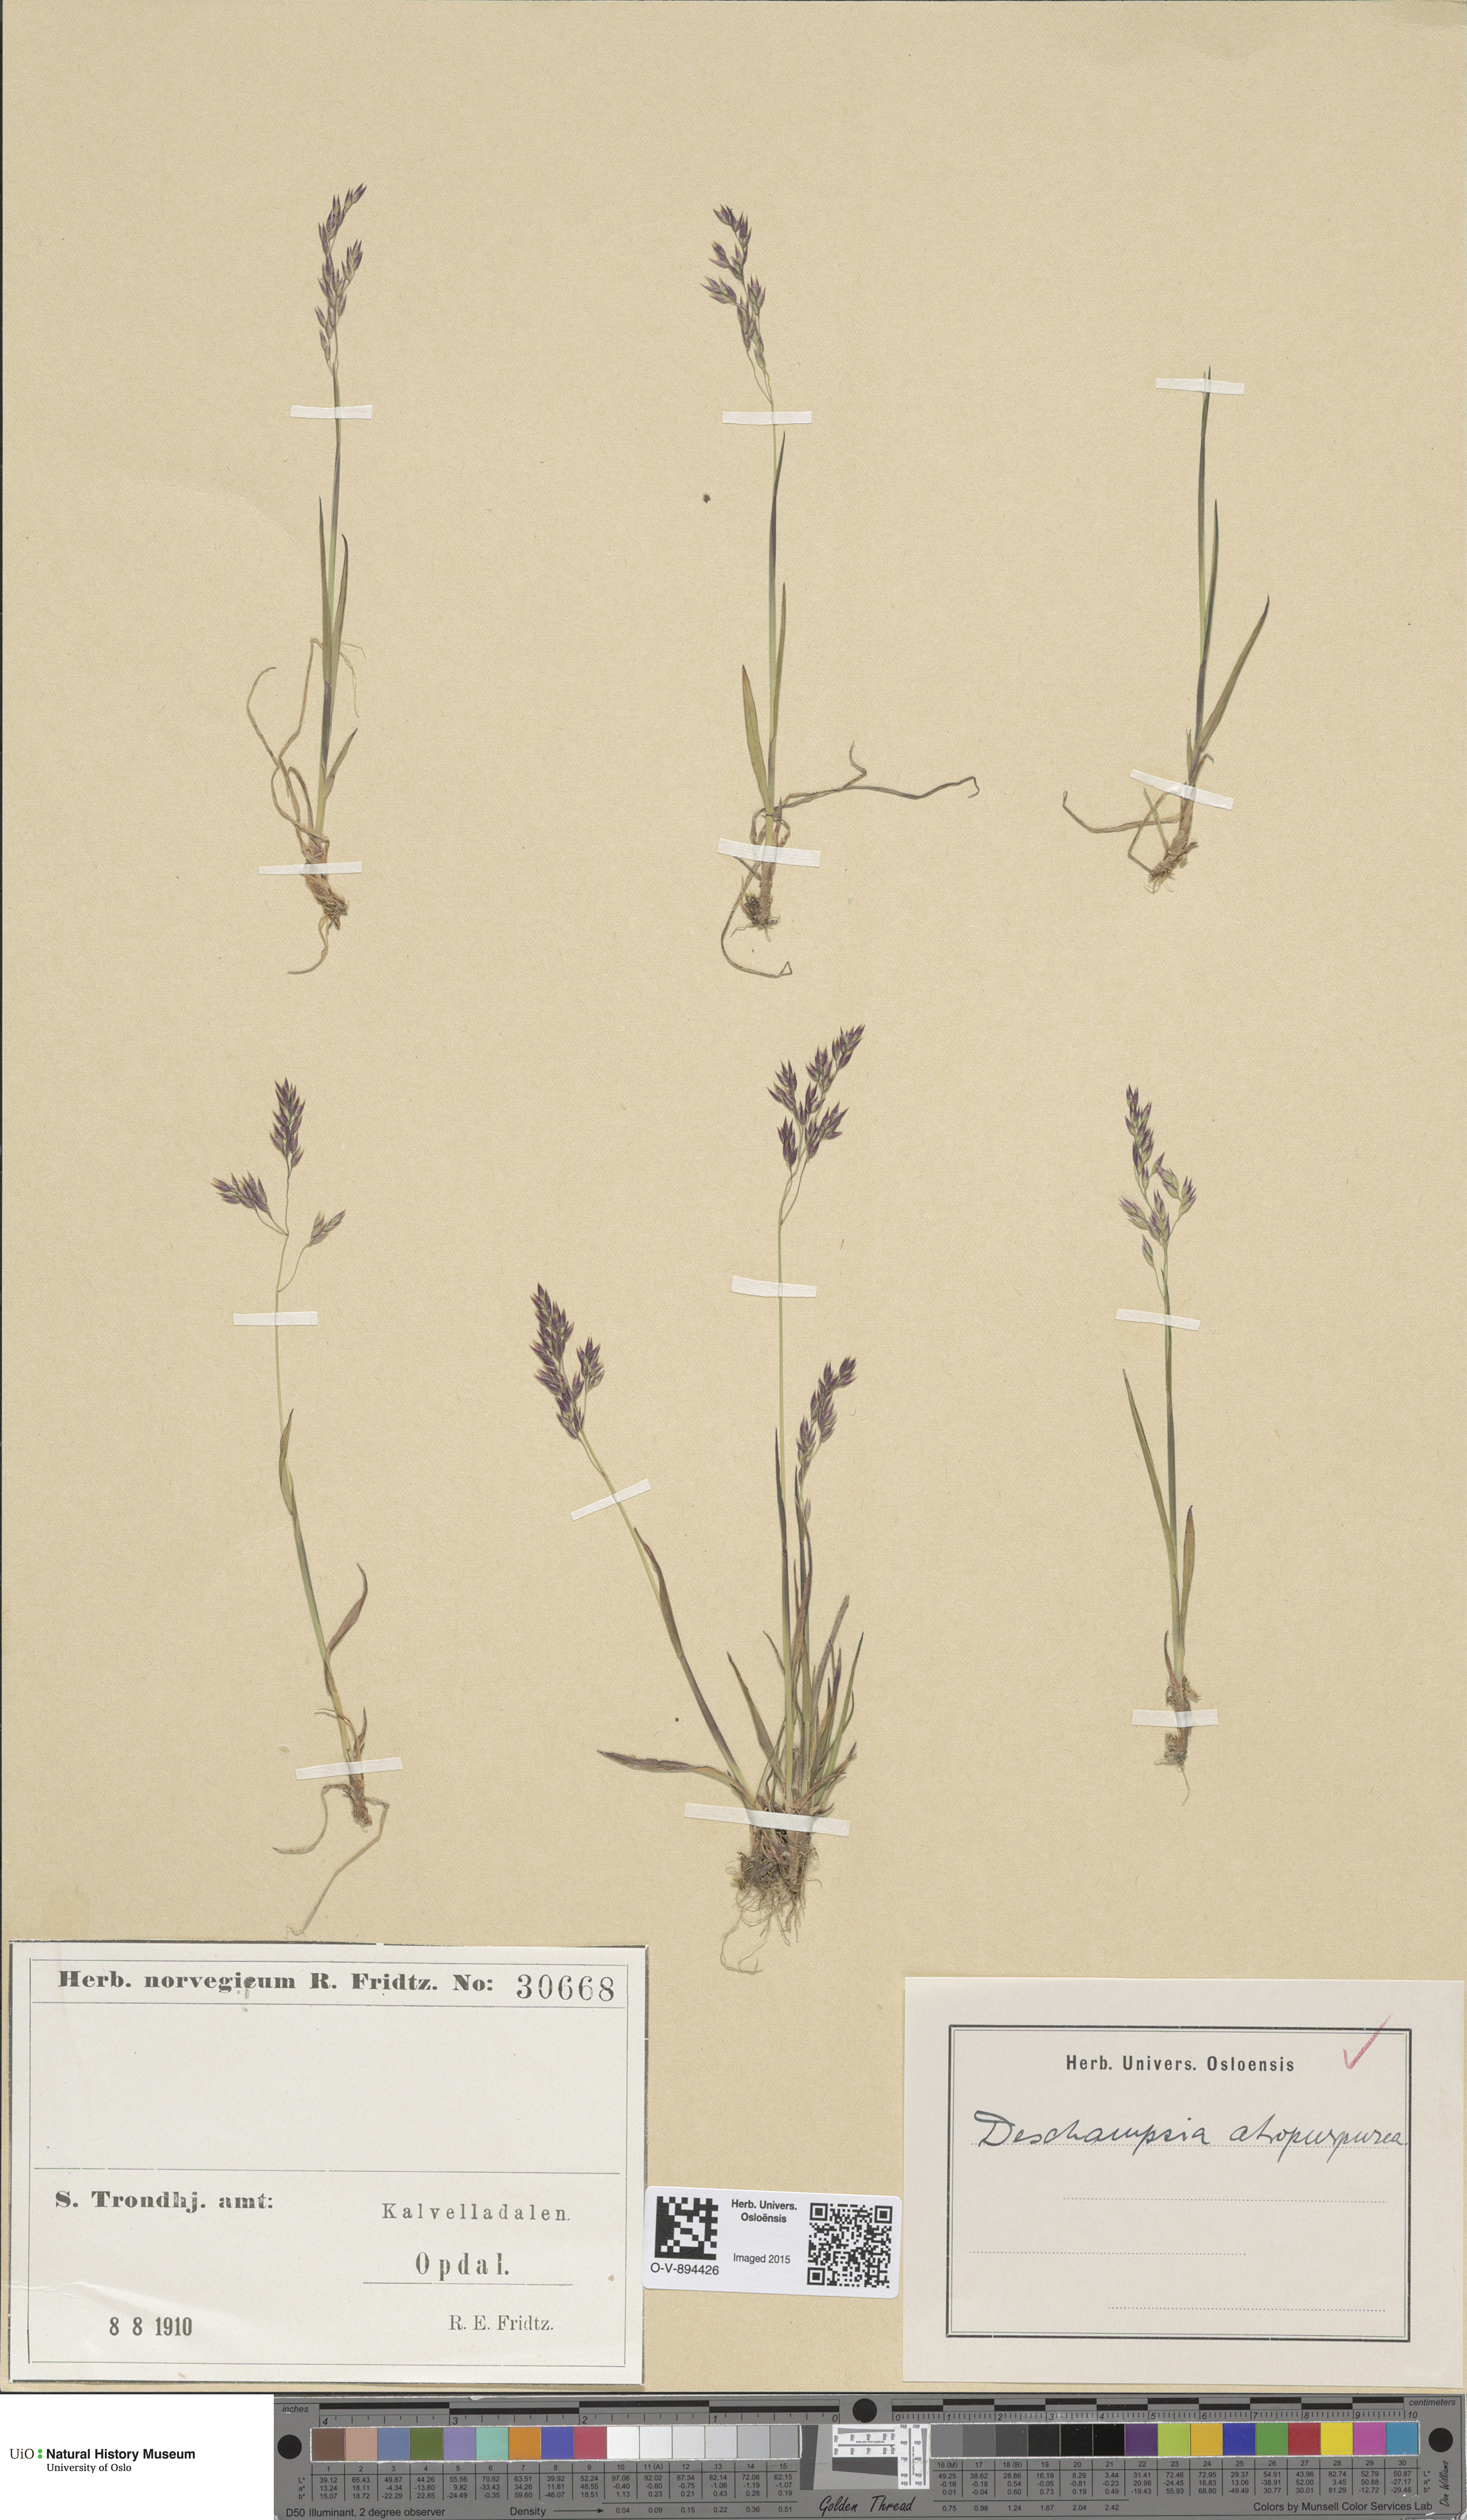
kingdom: Plantae
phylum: Tracheophyta
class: Liliopsida
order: Poales
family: Poaceae
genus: Vahlodea
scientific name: Vahlodea atropurpurea
